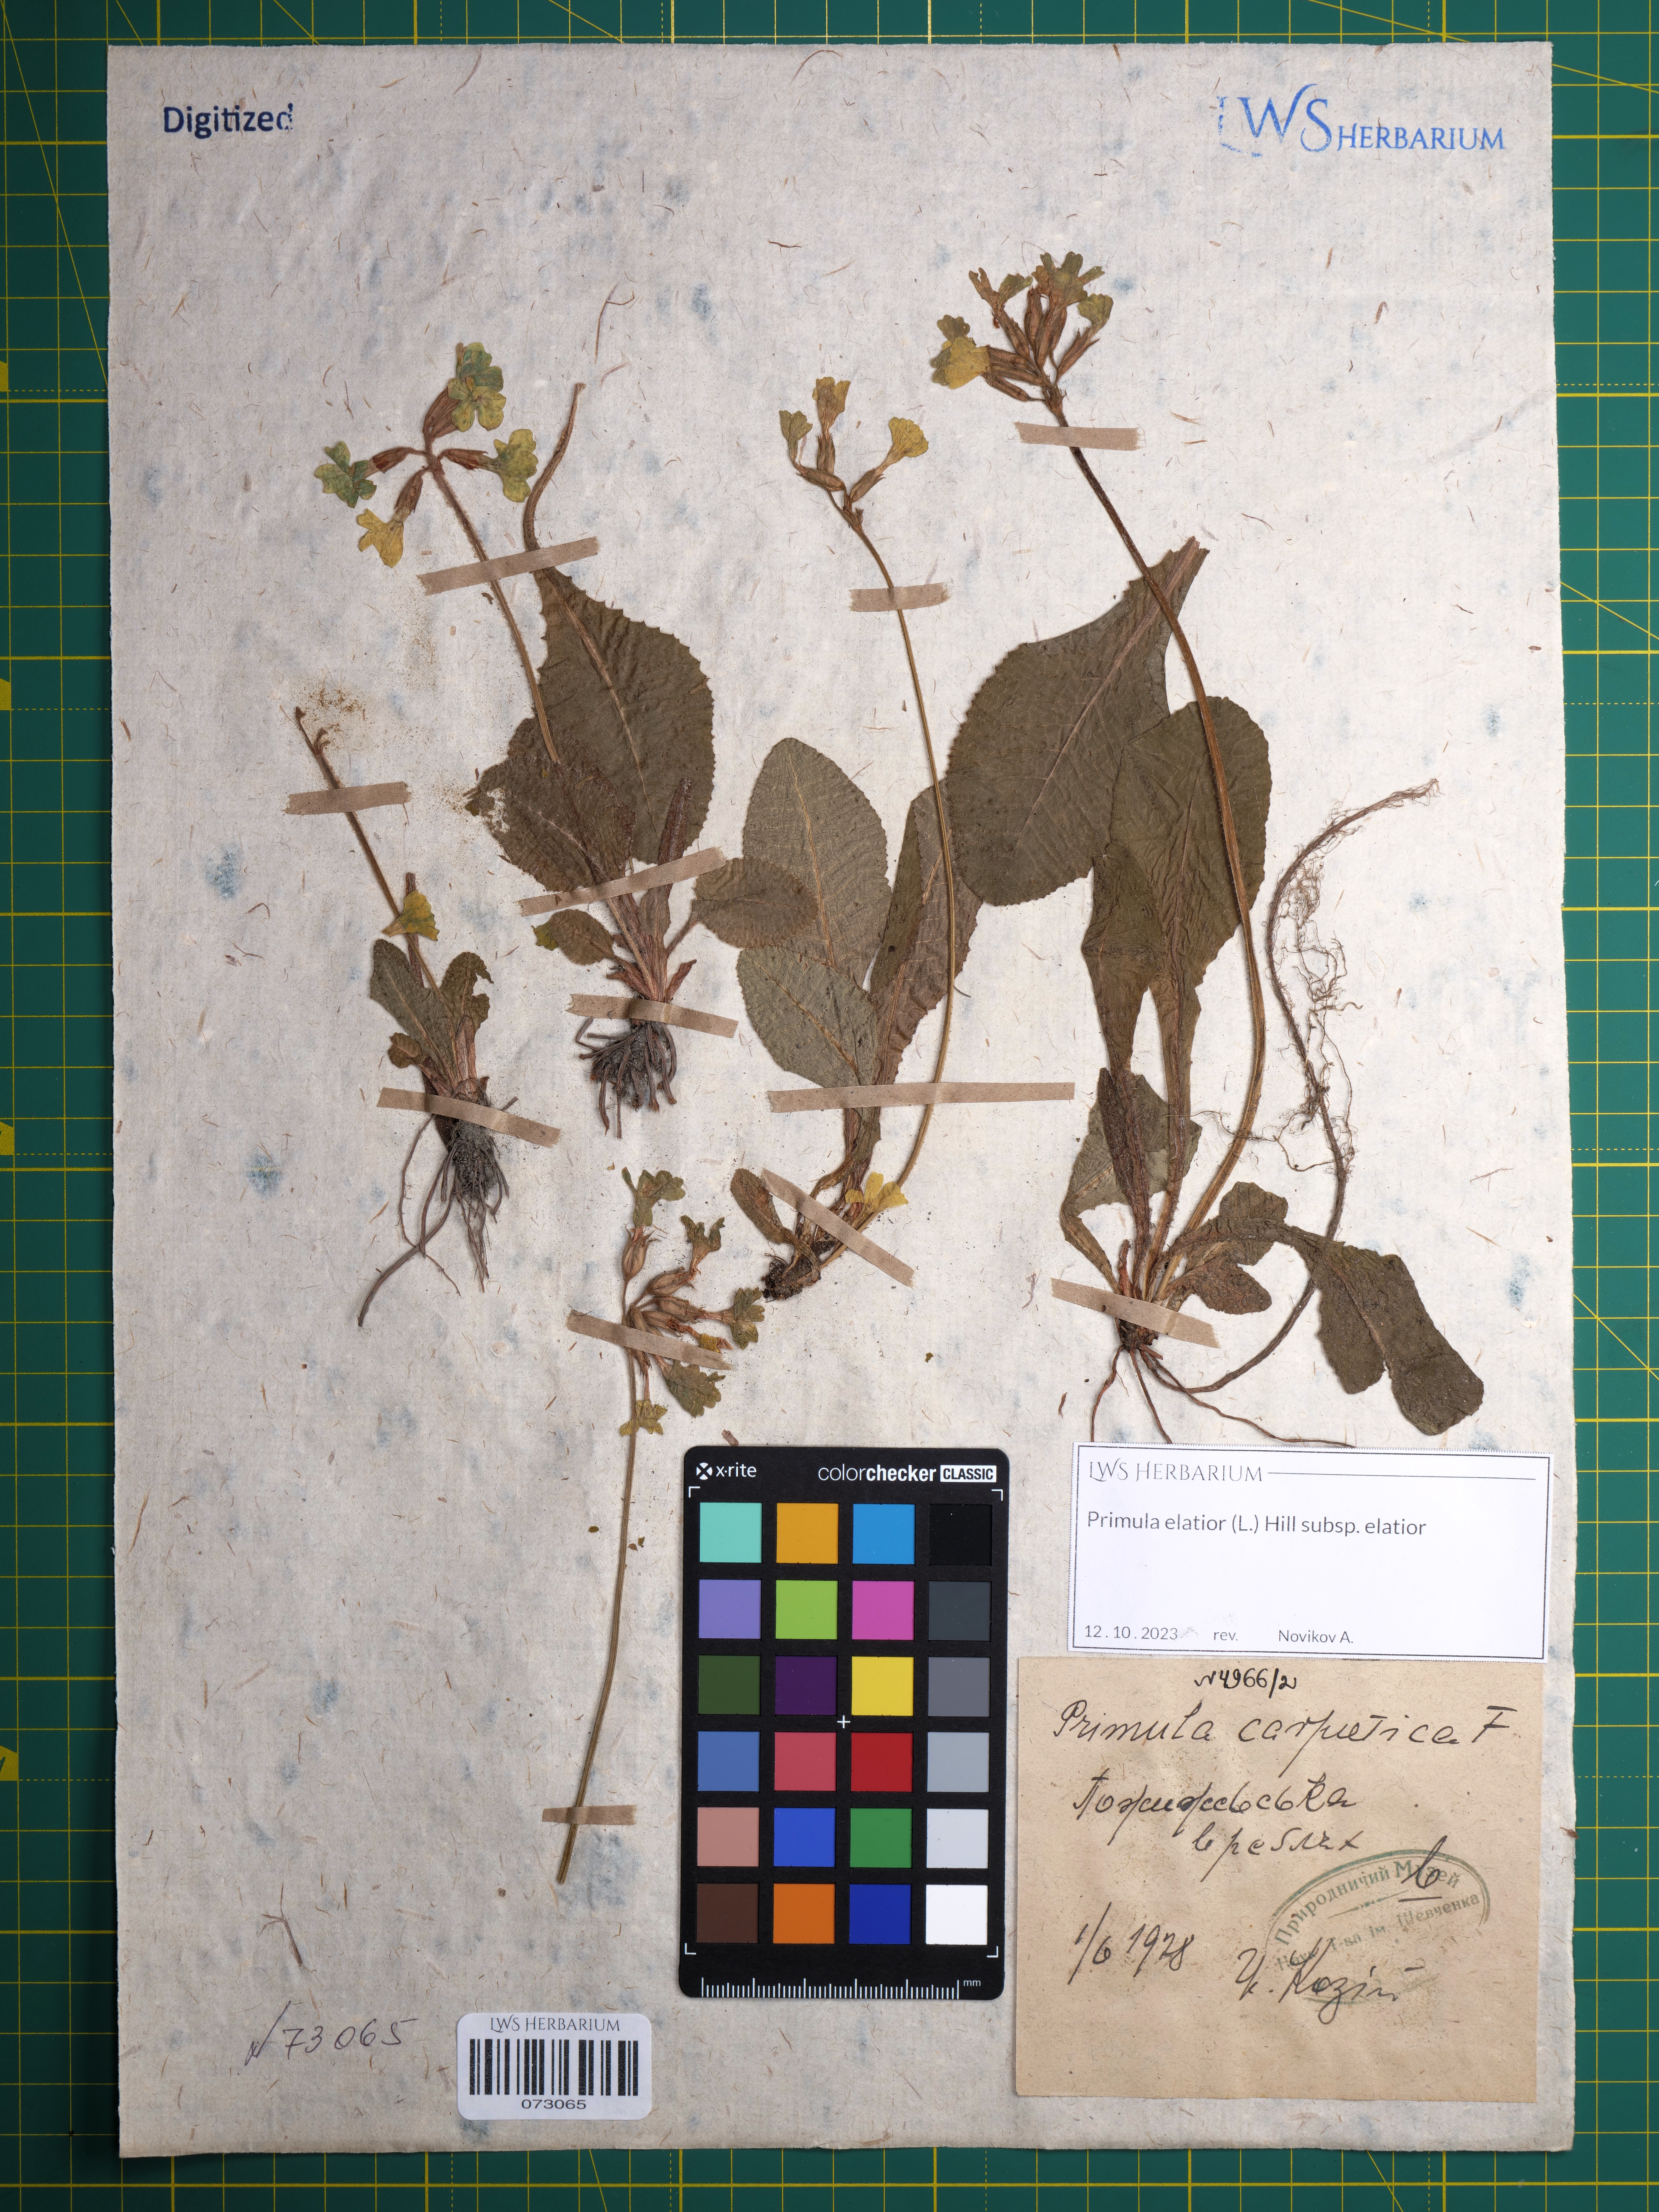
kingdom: Plantae
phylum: Tracheophyta
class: Magnoliopsida
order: Ericales
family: Primulaceae
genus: Primula
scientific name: Primula elatior
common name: Oxlip
